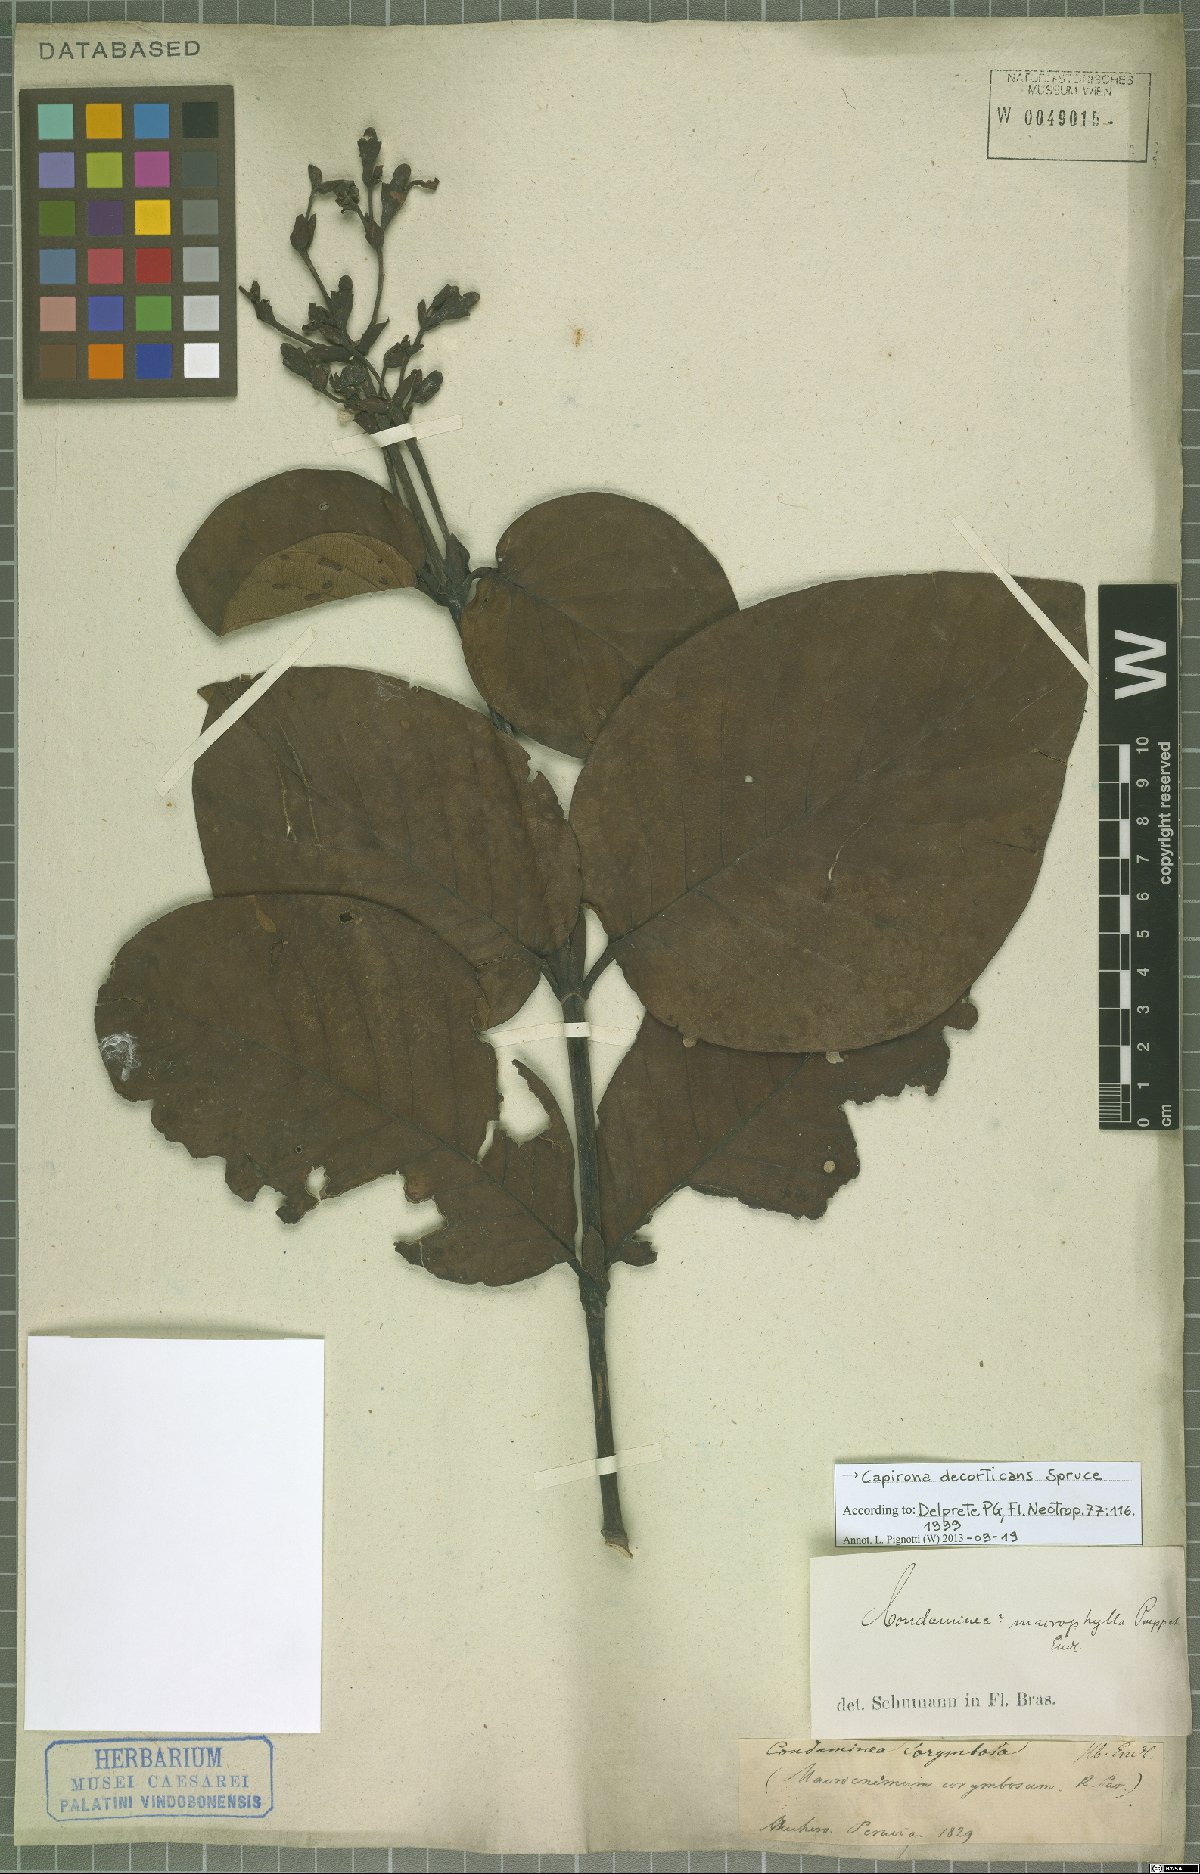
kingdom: Plantae
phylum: Tracheophyta
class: Magnoliopsida
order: Gentianales
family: Rubiaceae
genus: Capirona
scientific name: Capirona macrophylla
